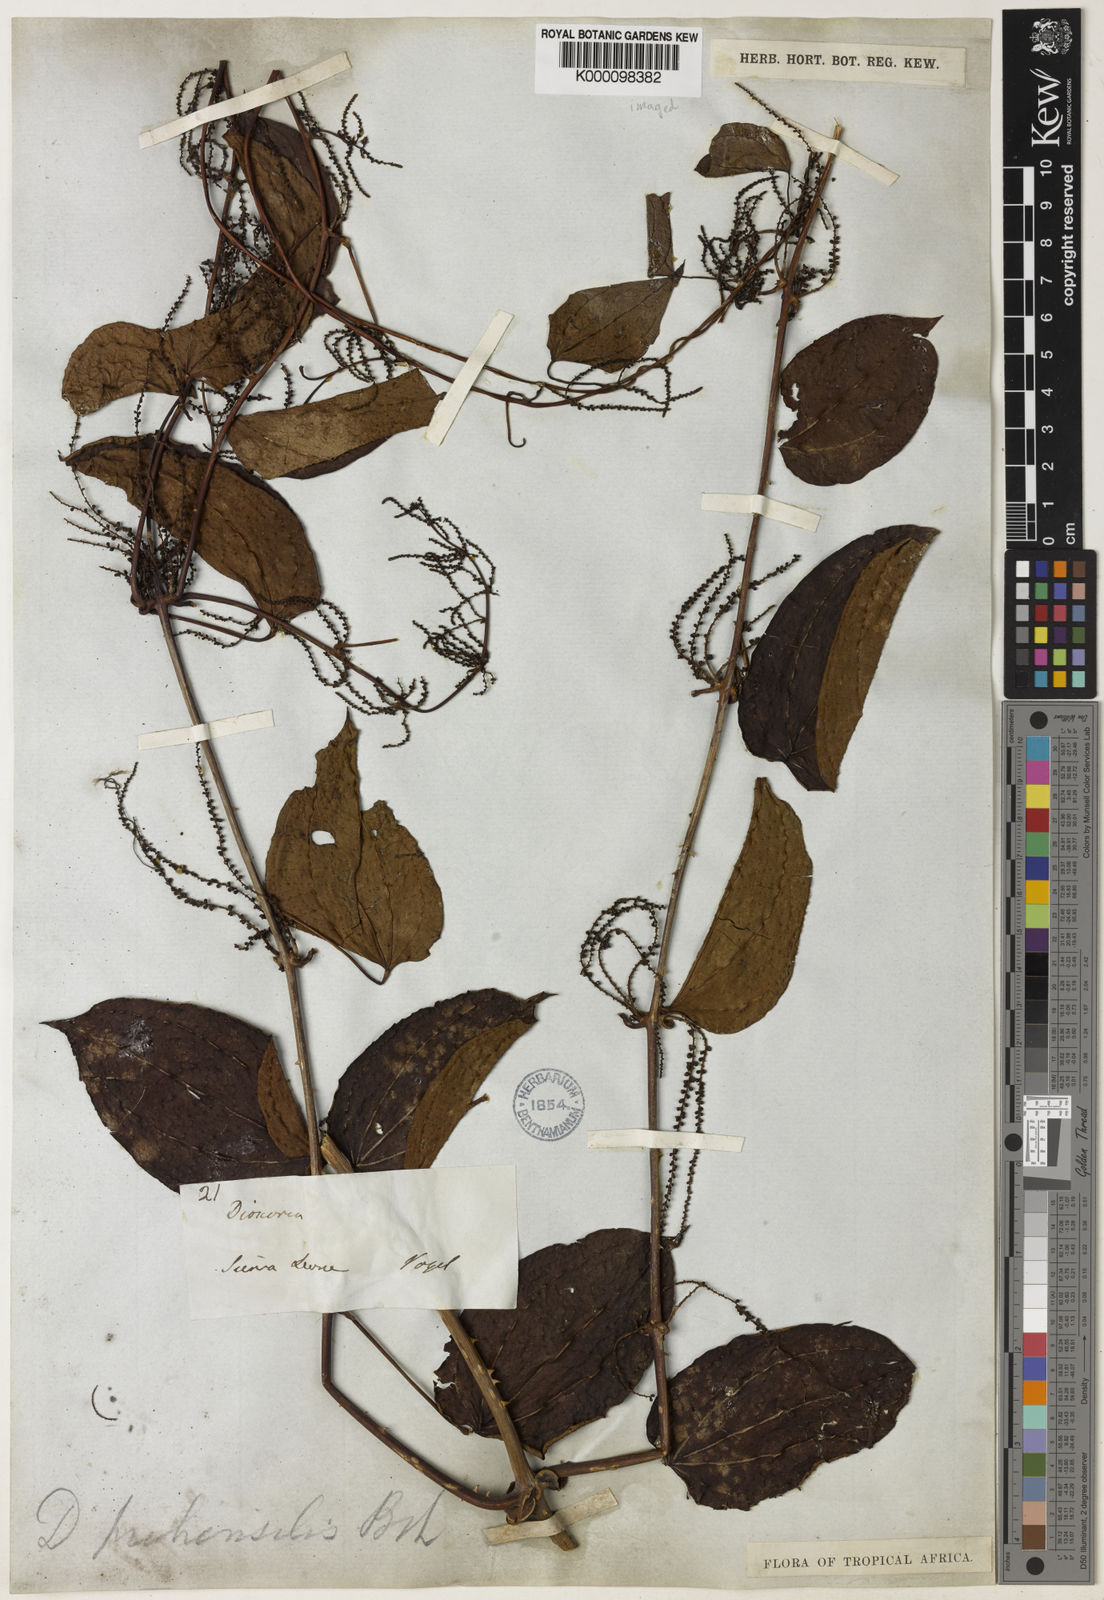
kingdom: Plantae
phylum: Tracheophyta
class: Liliopsida
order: Dioscoreales
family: Dioscoreaceae
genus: Dioscorea
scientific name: Dioscorea praehensilis
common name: Bush yam
